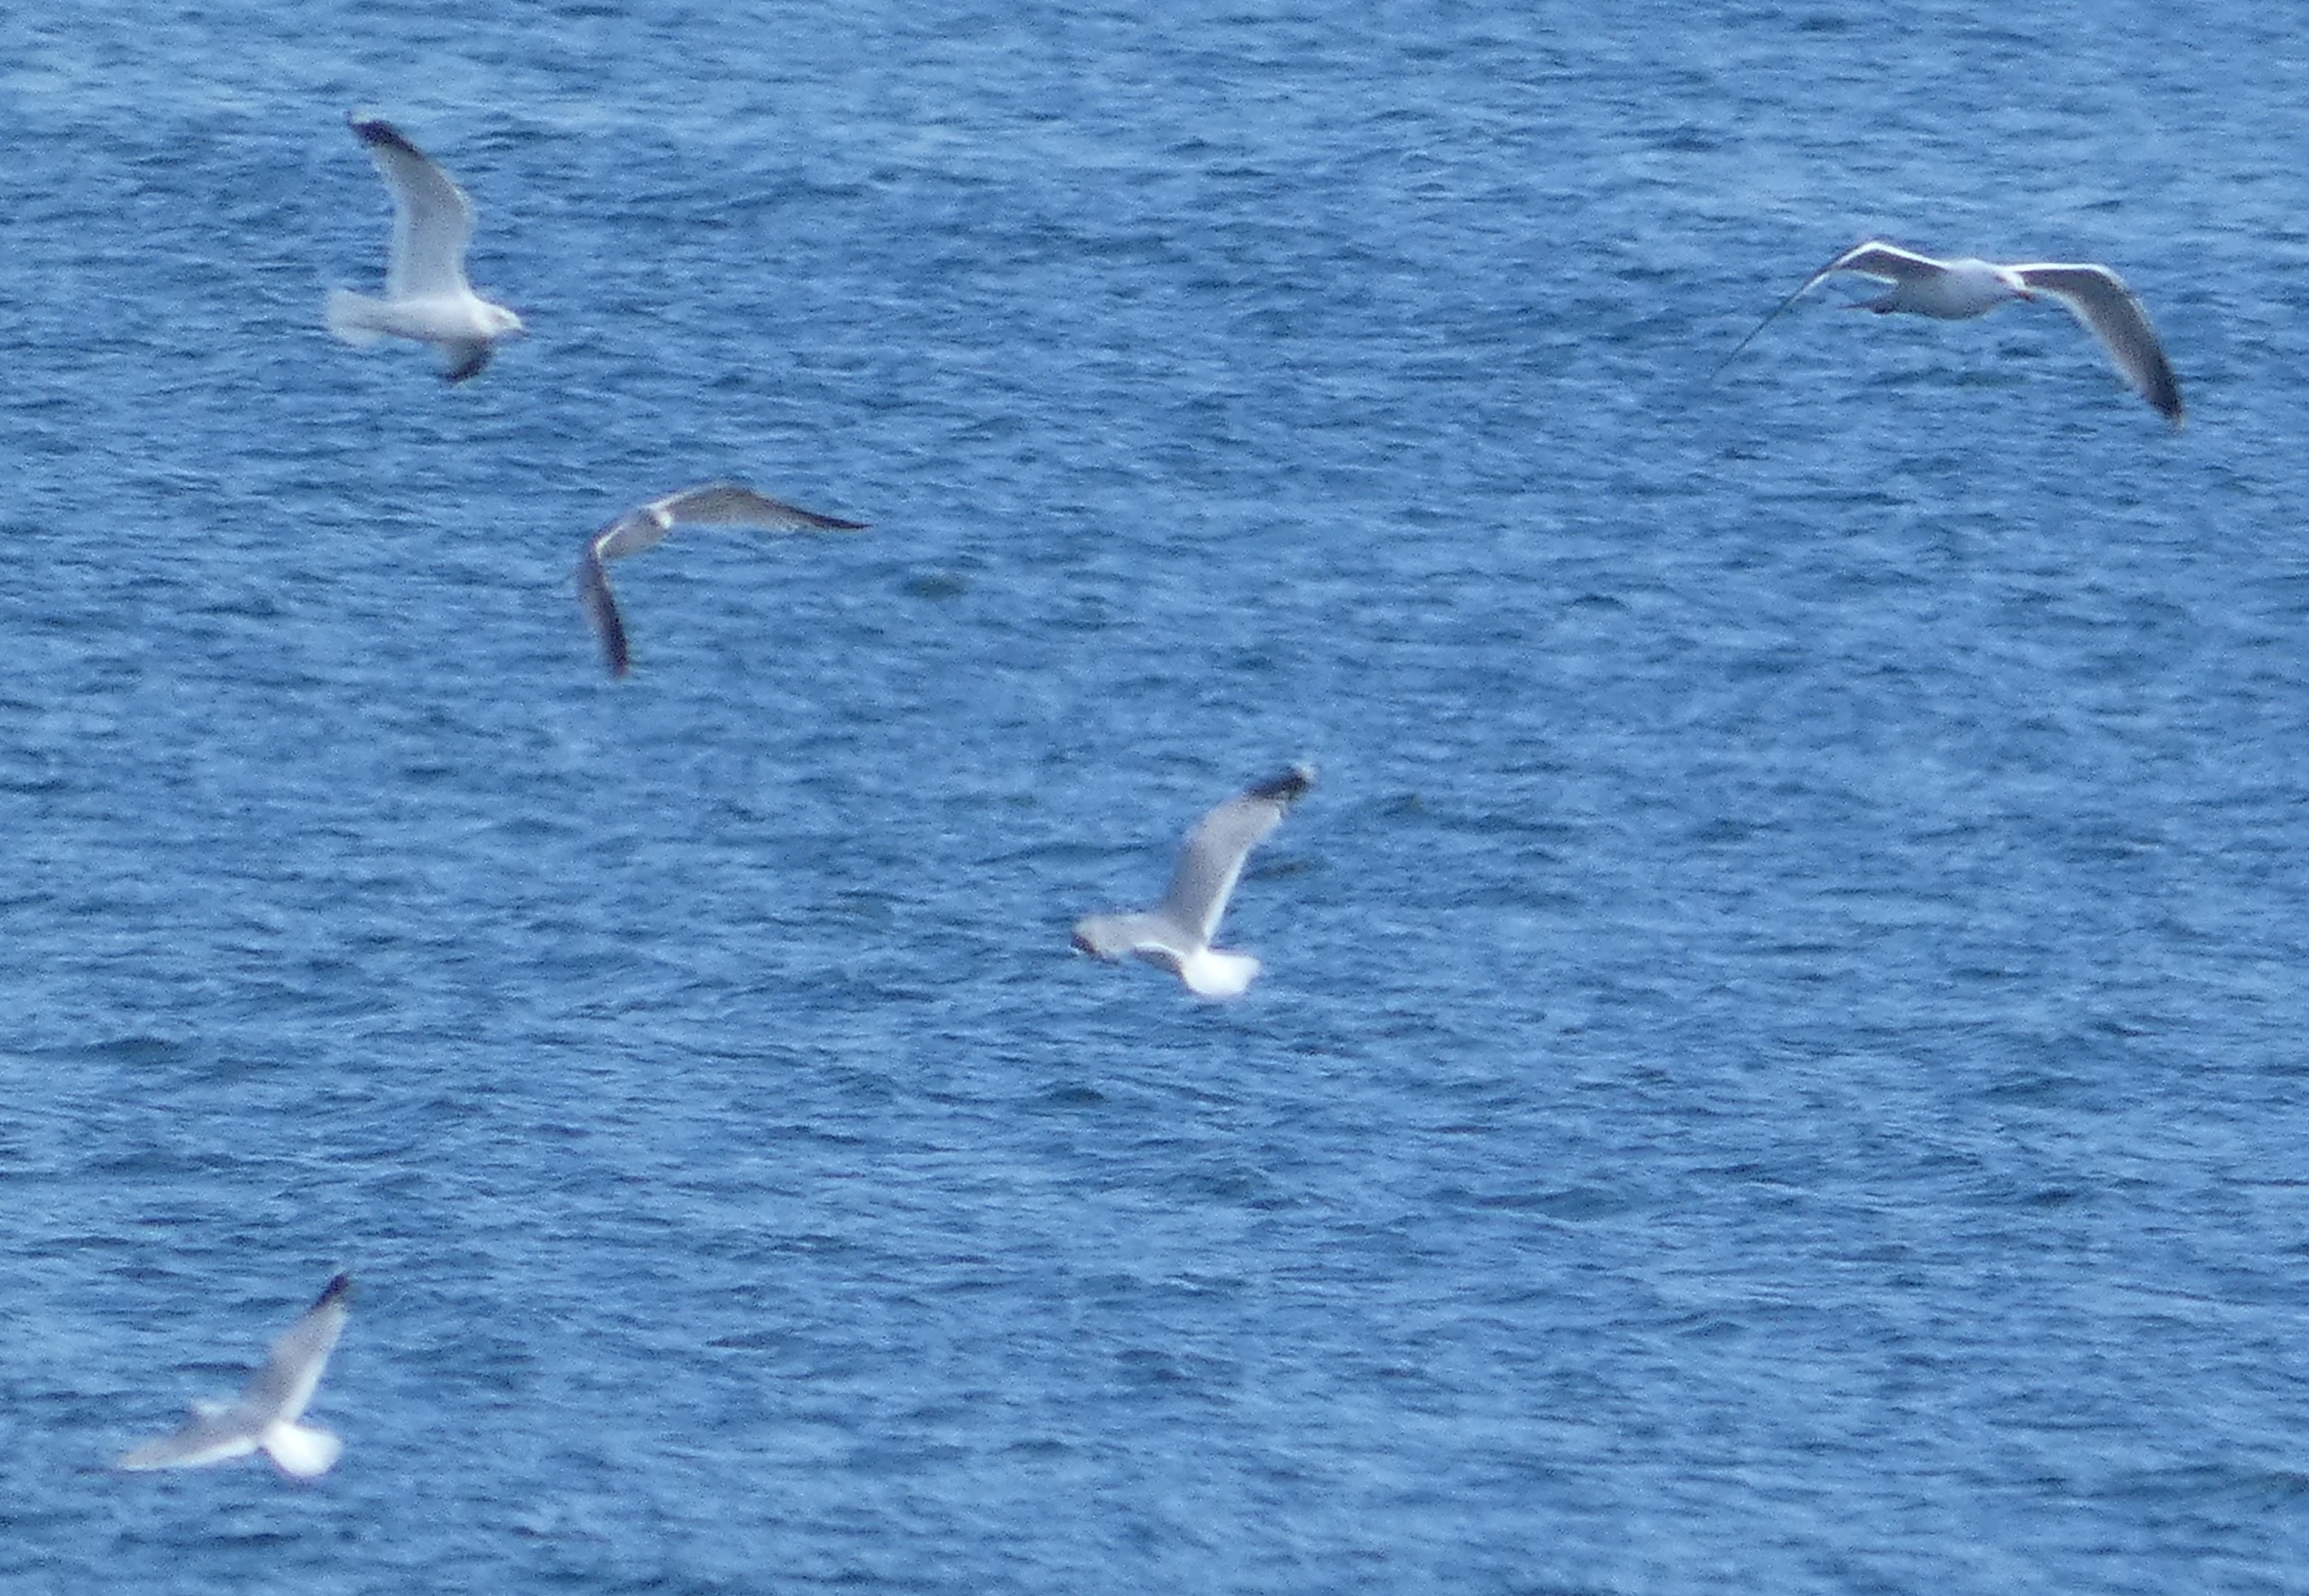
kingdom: Animalia
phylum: Chordata
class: Aves
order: Charadriiformes
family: Laridae
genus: Larus
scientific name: Larus canus
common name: Stormmåge
